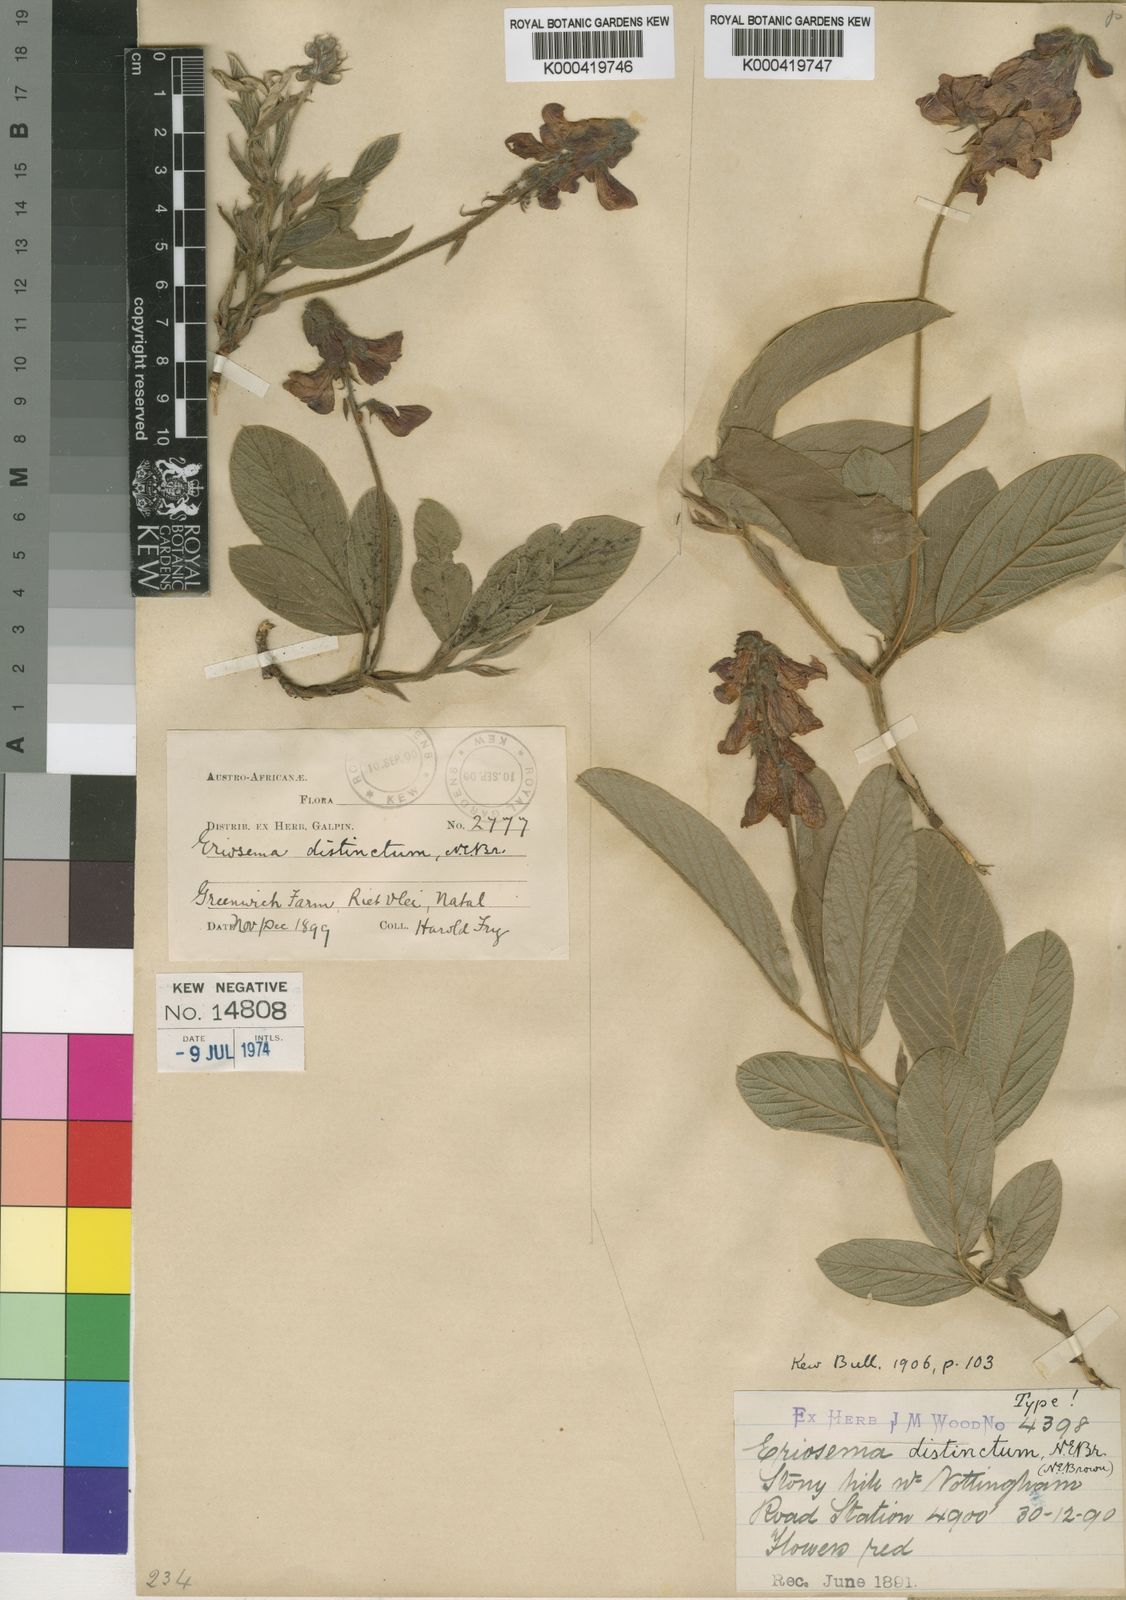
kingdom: Plantae
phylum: Tracheophyta
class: Magnoliopsida
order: Fabales
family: Fabaceae
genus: Eriosema
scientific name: Eriosema distinctum
